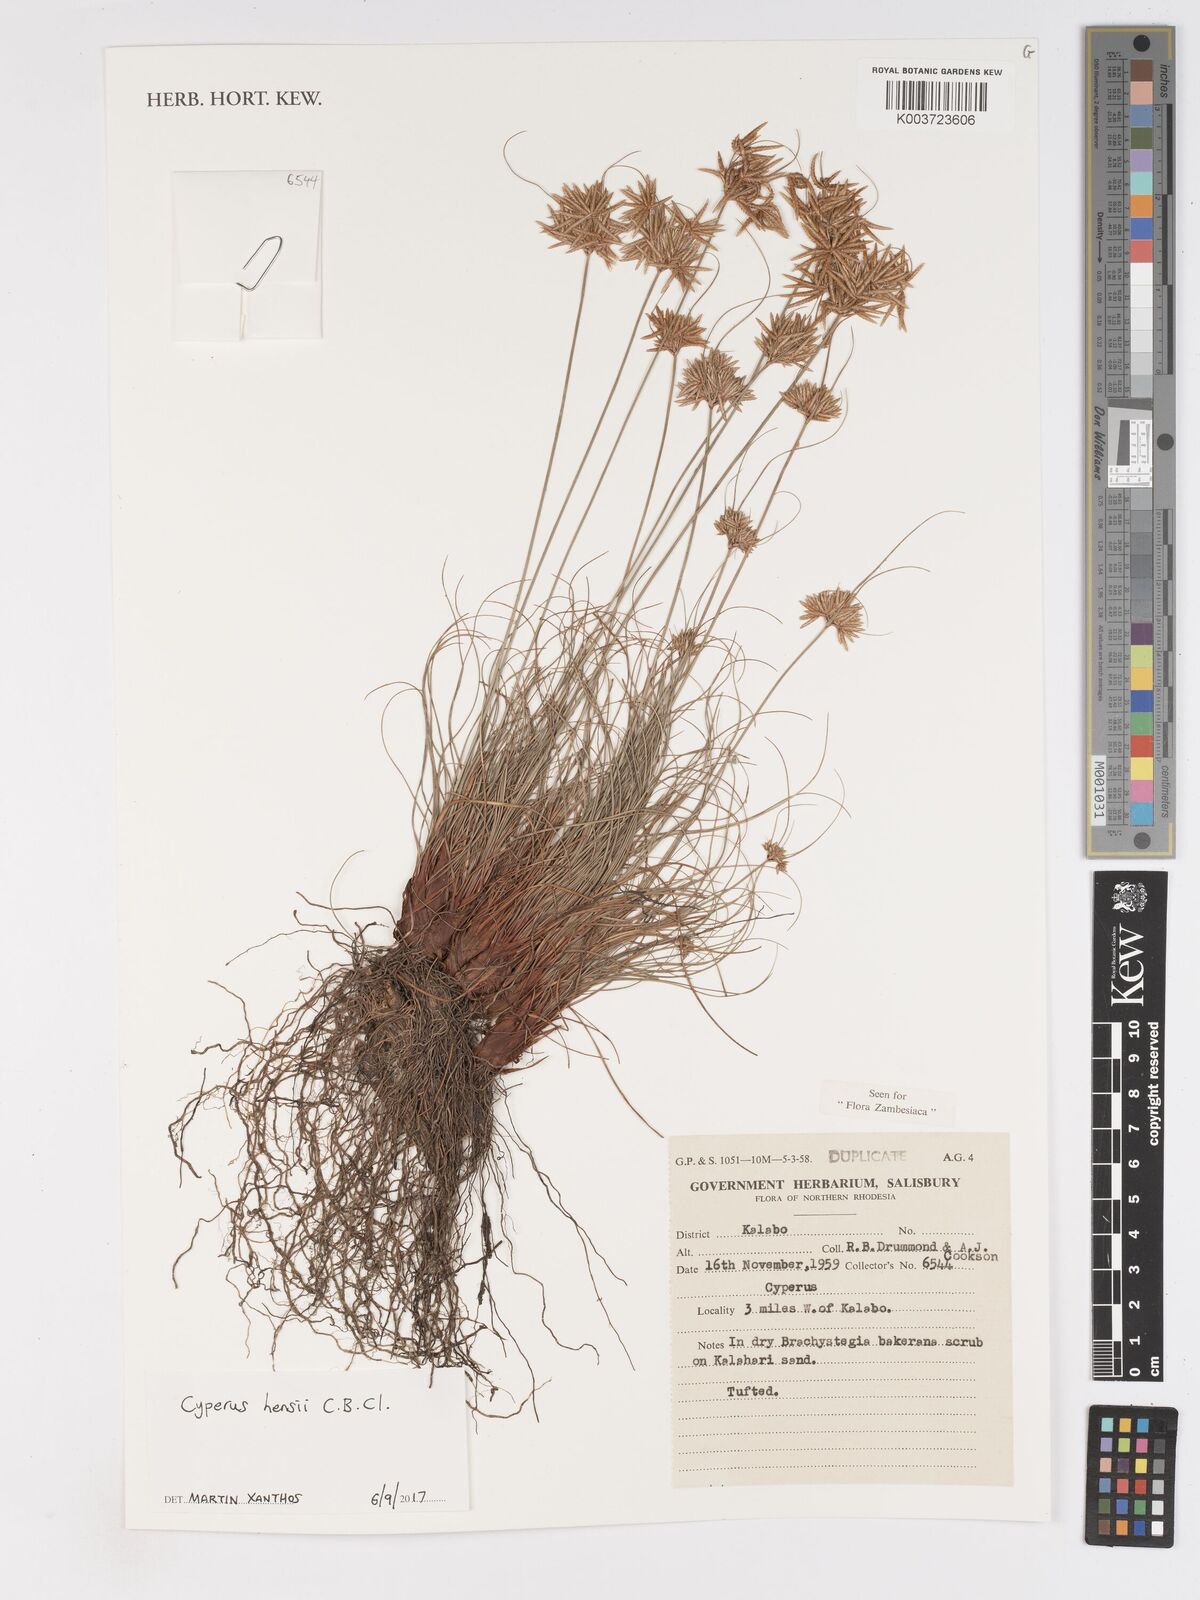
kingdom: Plantae
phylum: Tracheophyta
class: Liliopsida
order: Poales
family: Cyperaceae
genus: Cyperus
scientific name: Cyperus hensii
